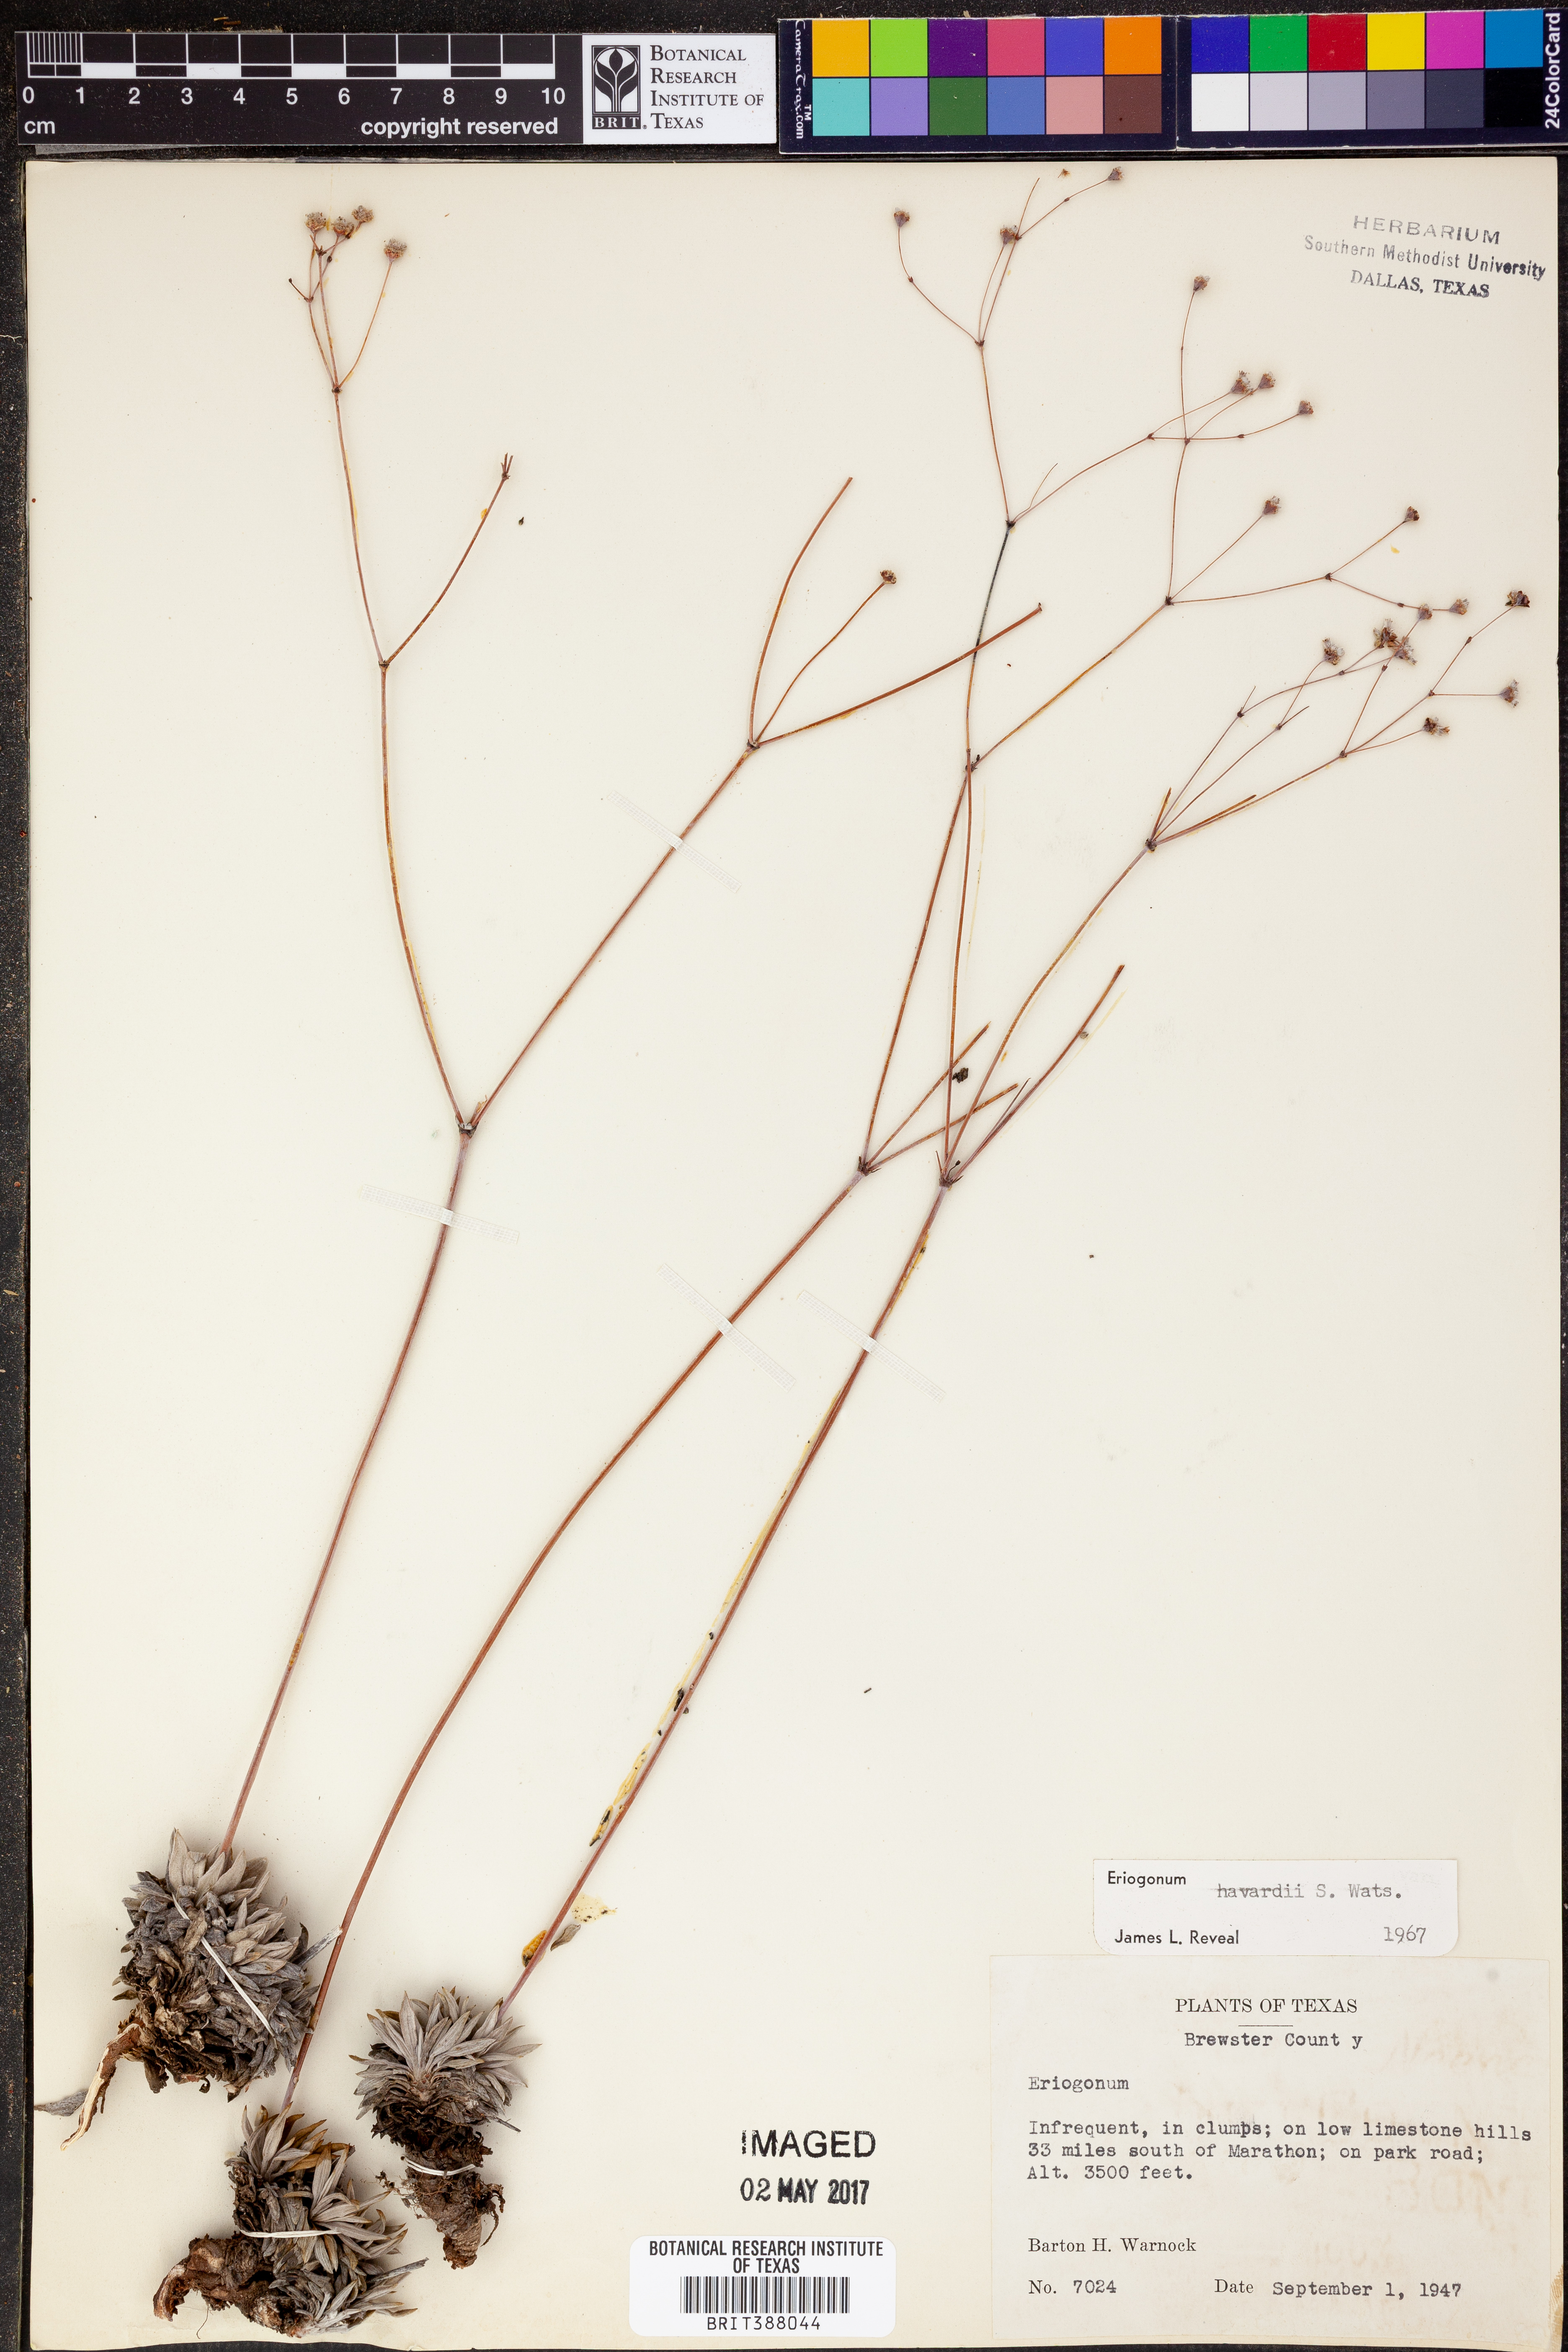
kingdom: Plantae
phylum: Tracheophyta
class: Magnoliopsida
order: Caryophyllales
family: Polygonaceae
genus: Eriogonum
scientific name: Eriogonum havardii
